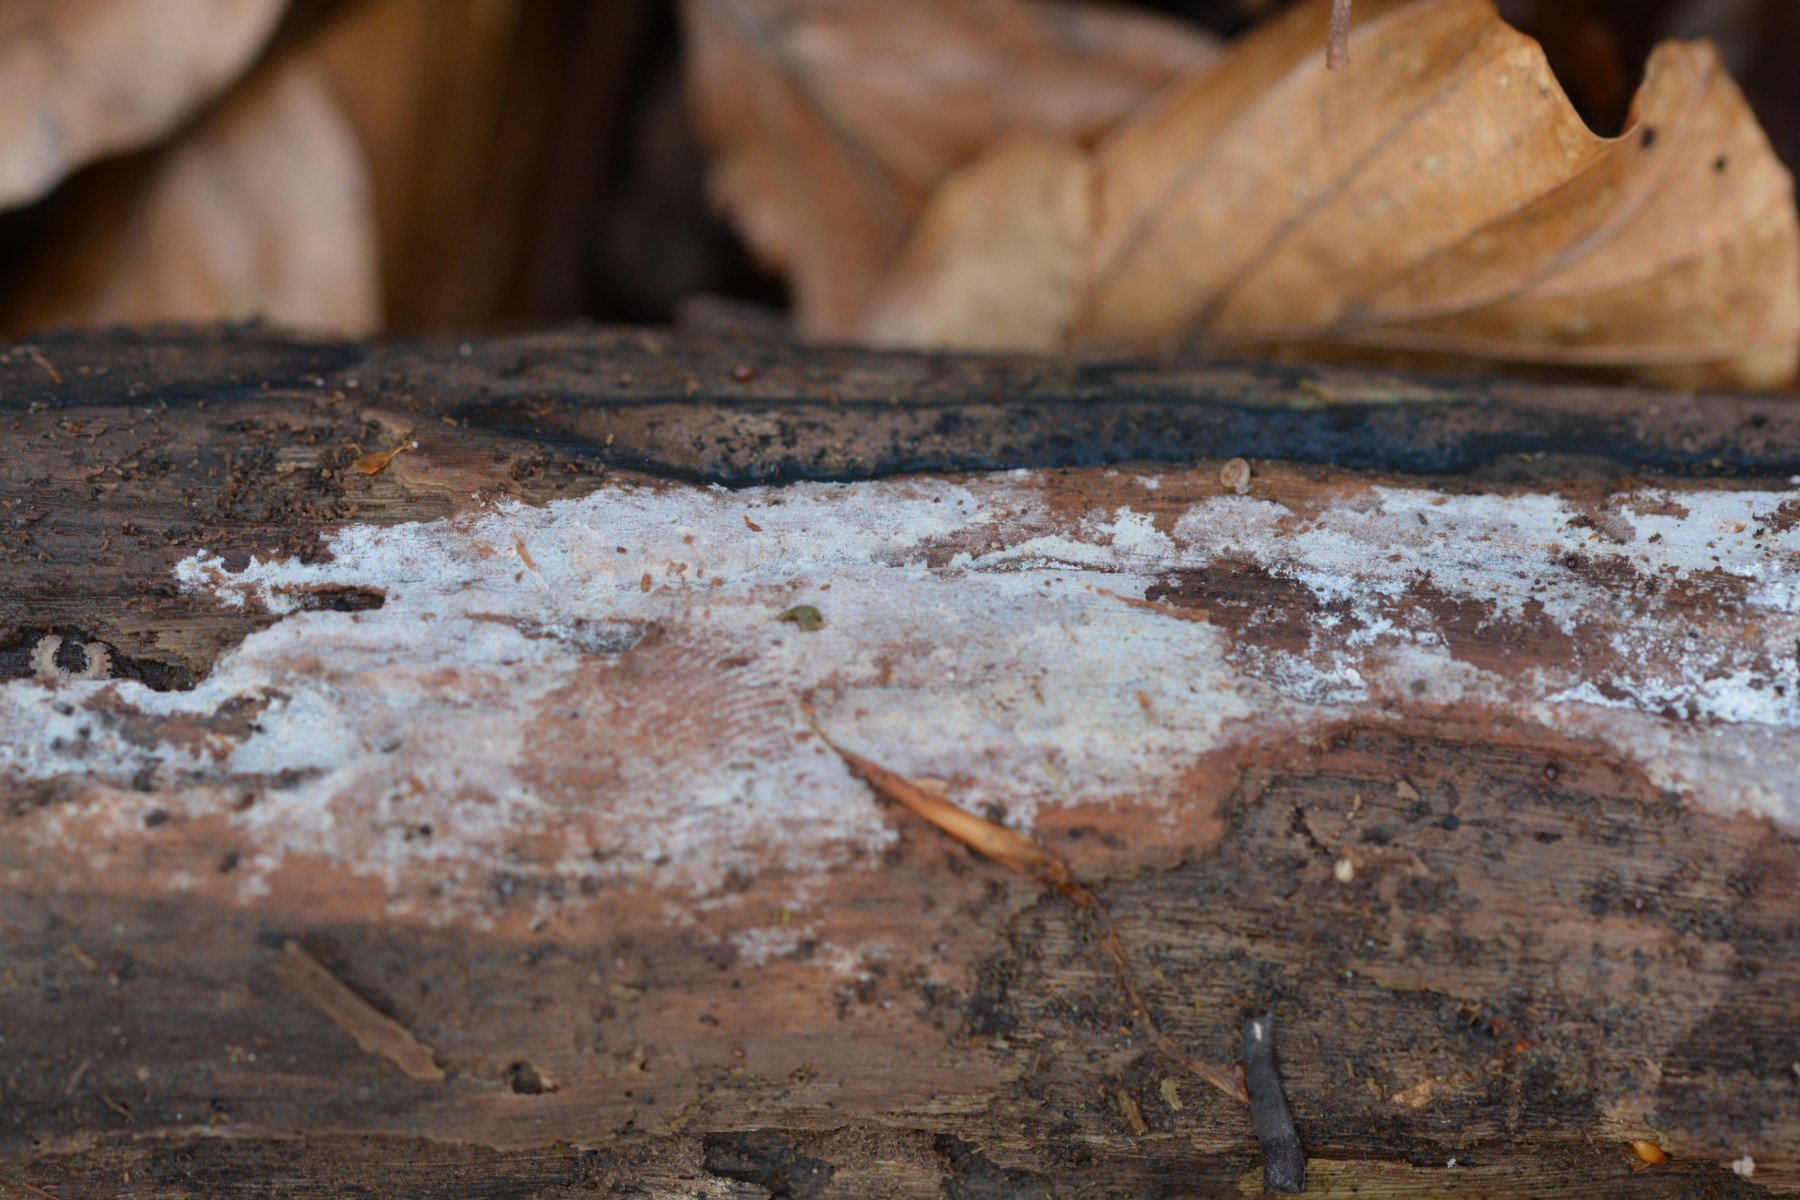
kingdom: Fungi
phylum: Basidiomycota
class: Agaricomycetes
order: Corticiales
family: Corticiaceae
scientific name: Corticiaceae
